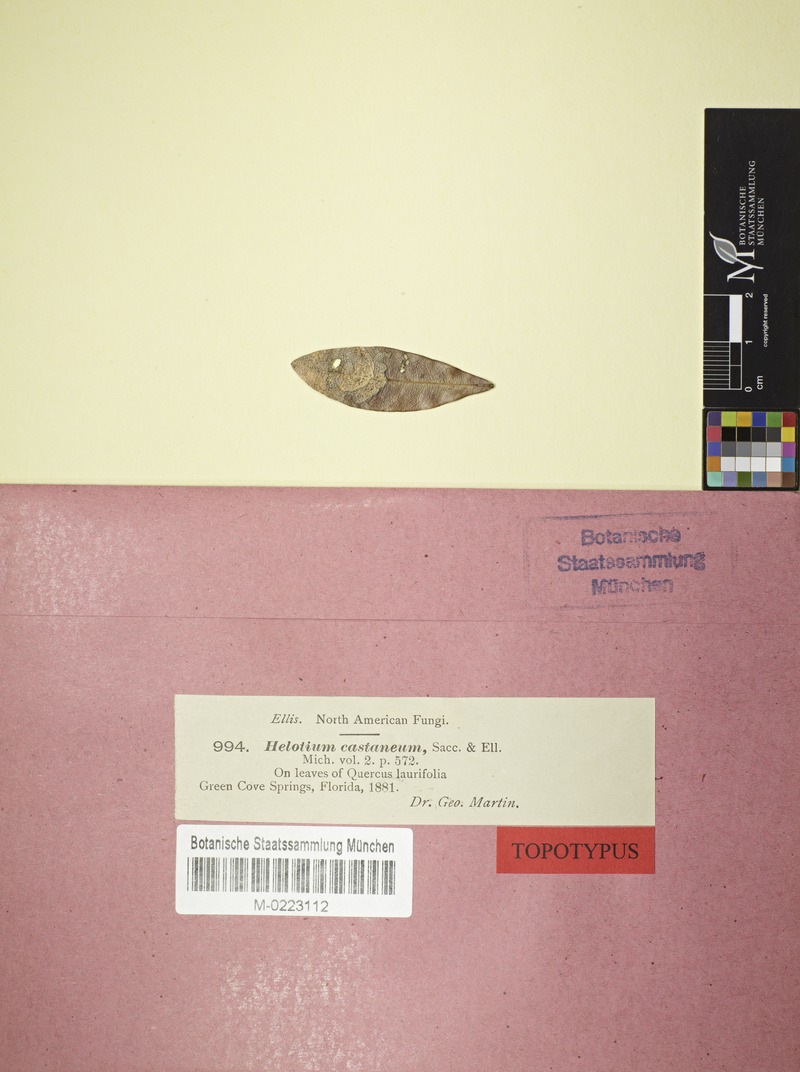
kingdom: Fungi
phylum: Ascomycota
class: Leotiomycetes
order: Helotiales
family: Pezizellaceae
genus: Micropeziza
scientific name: Micropeziza castanea
